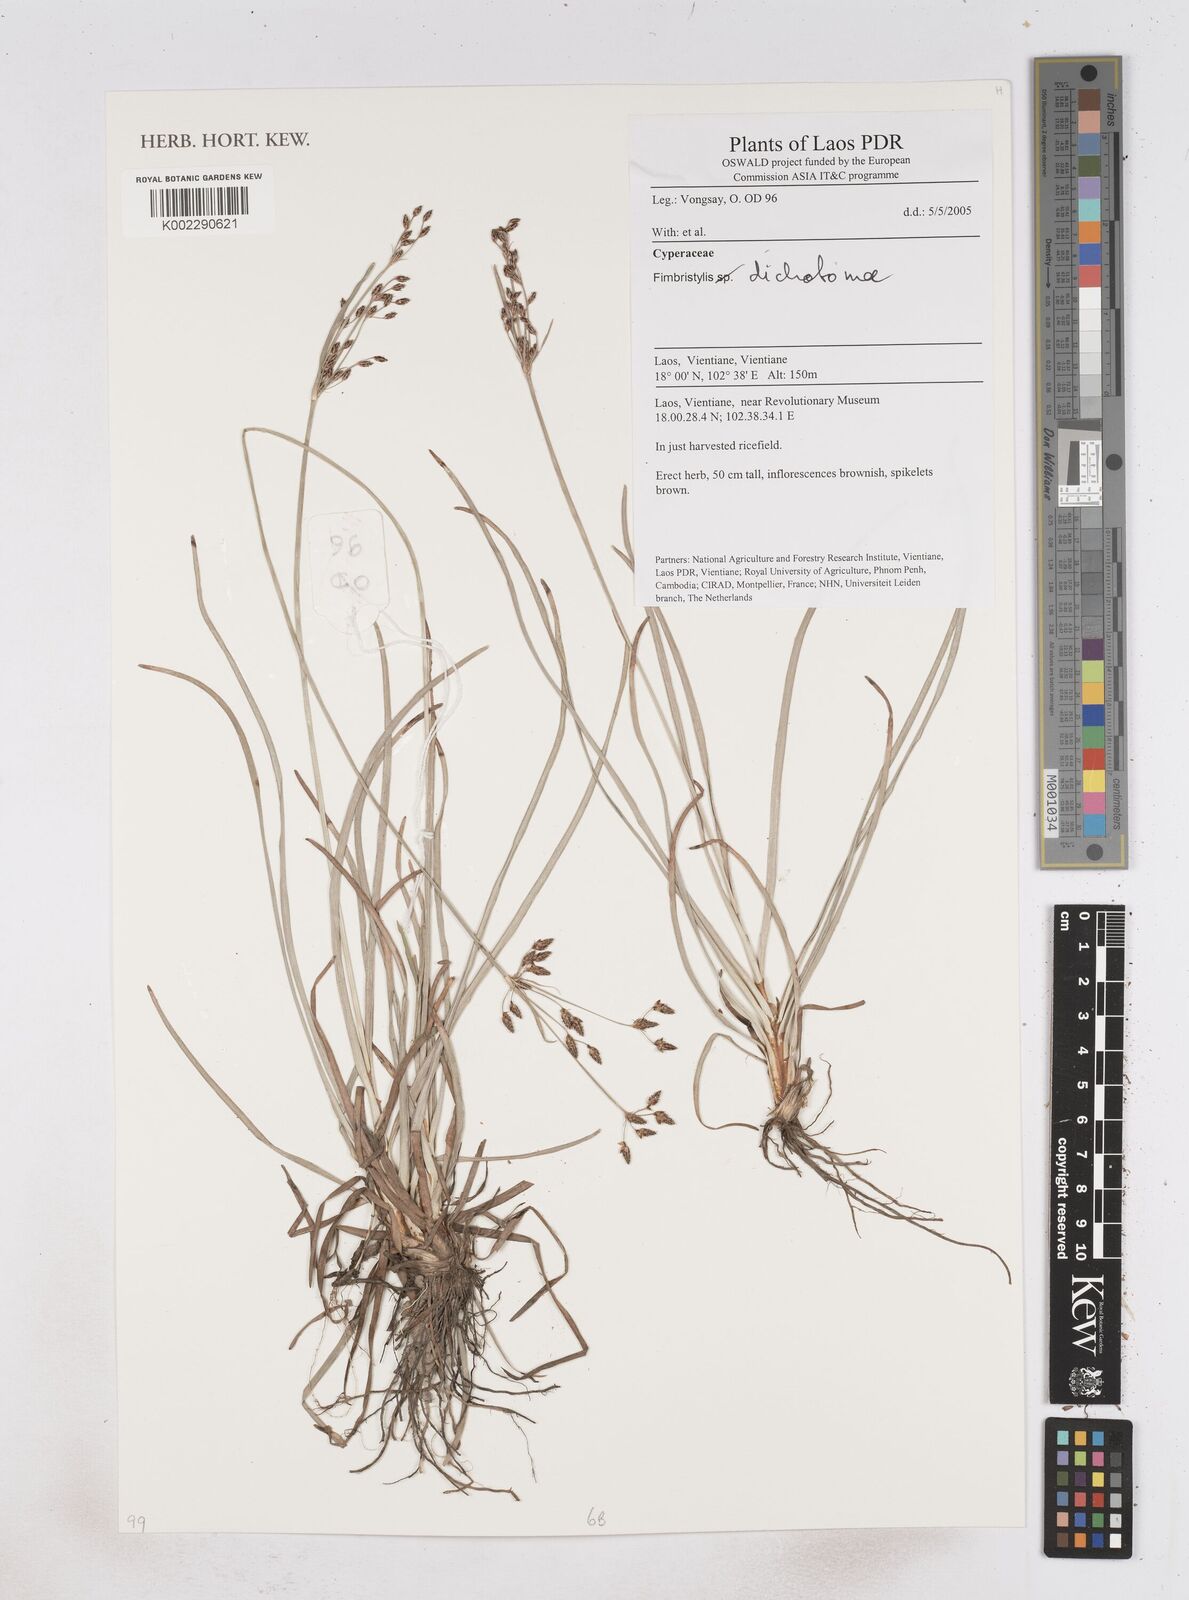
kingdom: Plantae
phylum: Tracheophyta
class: Liliopsida
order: Poales
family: Cyperaceae
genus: Fimbristylis
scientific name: Fimbristylis dichotoma
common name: Forked fimbry
